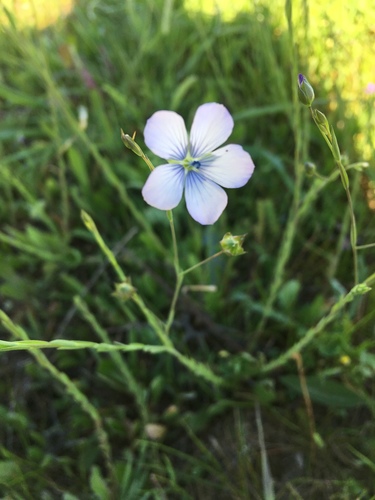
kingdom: Plantae
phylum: Tracheophyta
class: Magnoliopsida
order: Malpighiales
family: Linaceae
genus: Linum
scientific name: Linum bienne
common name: Pale flax
